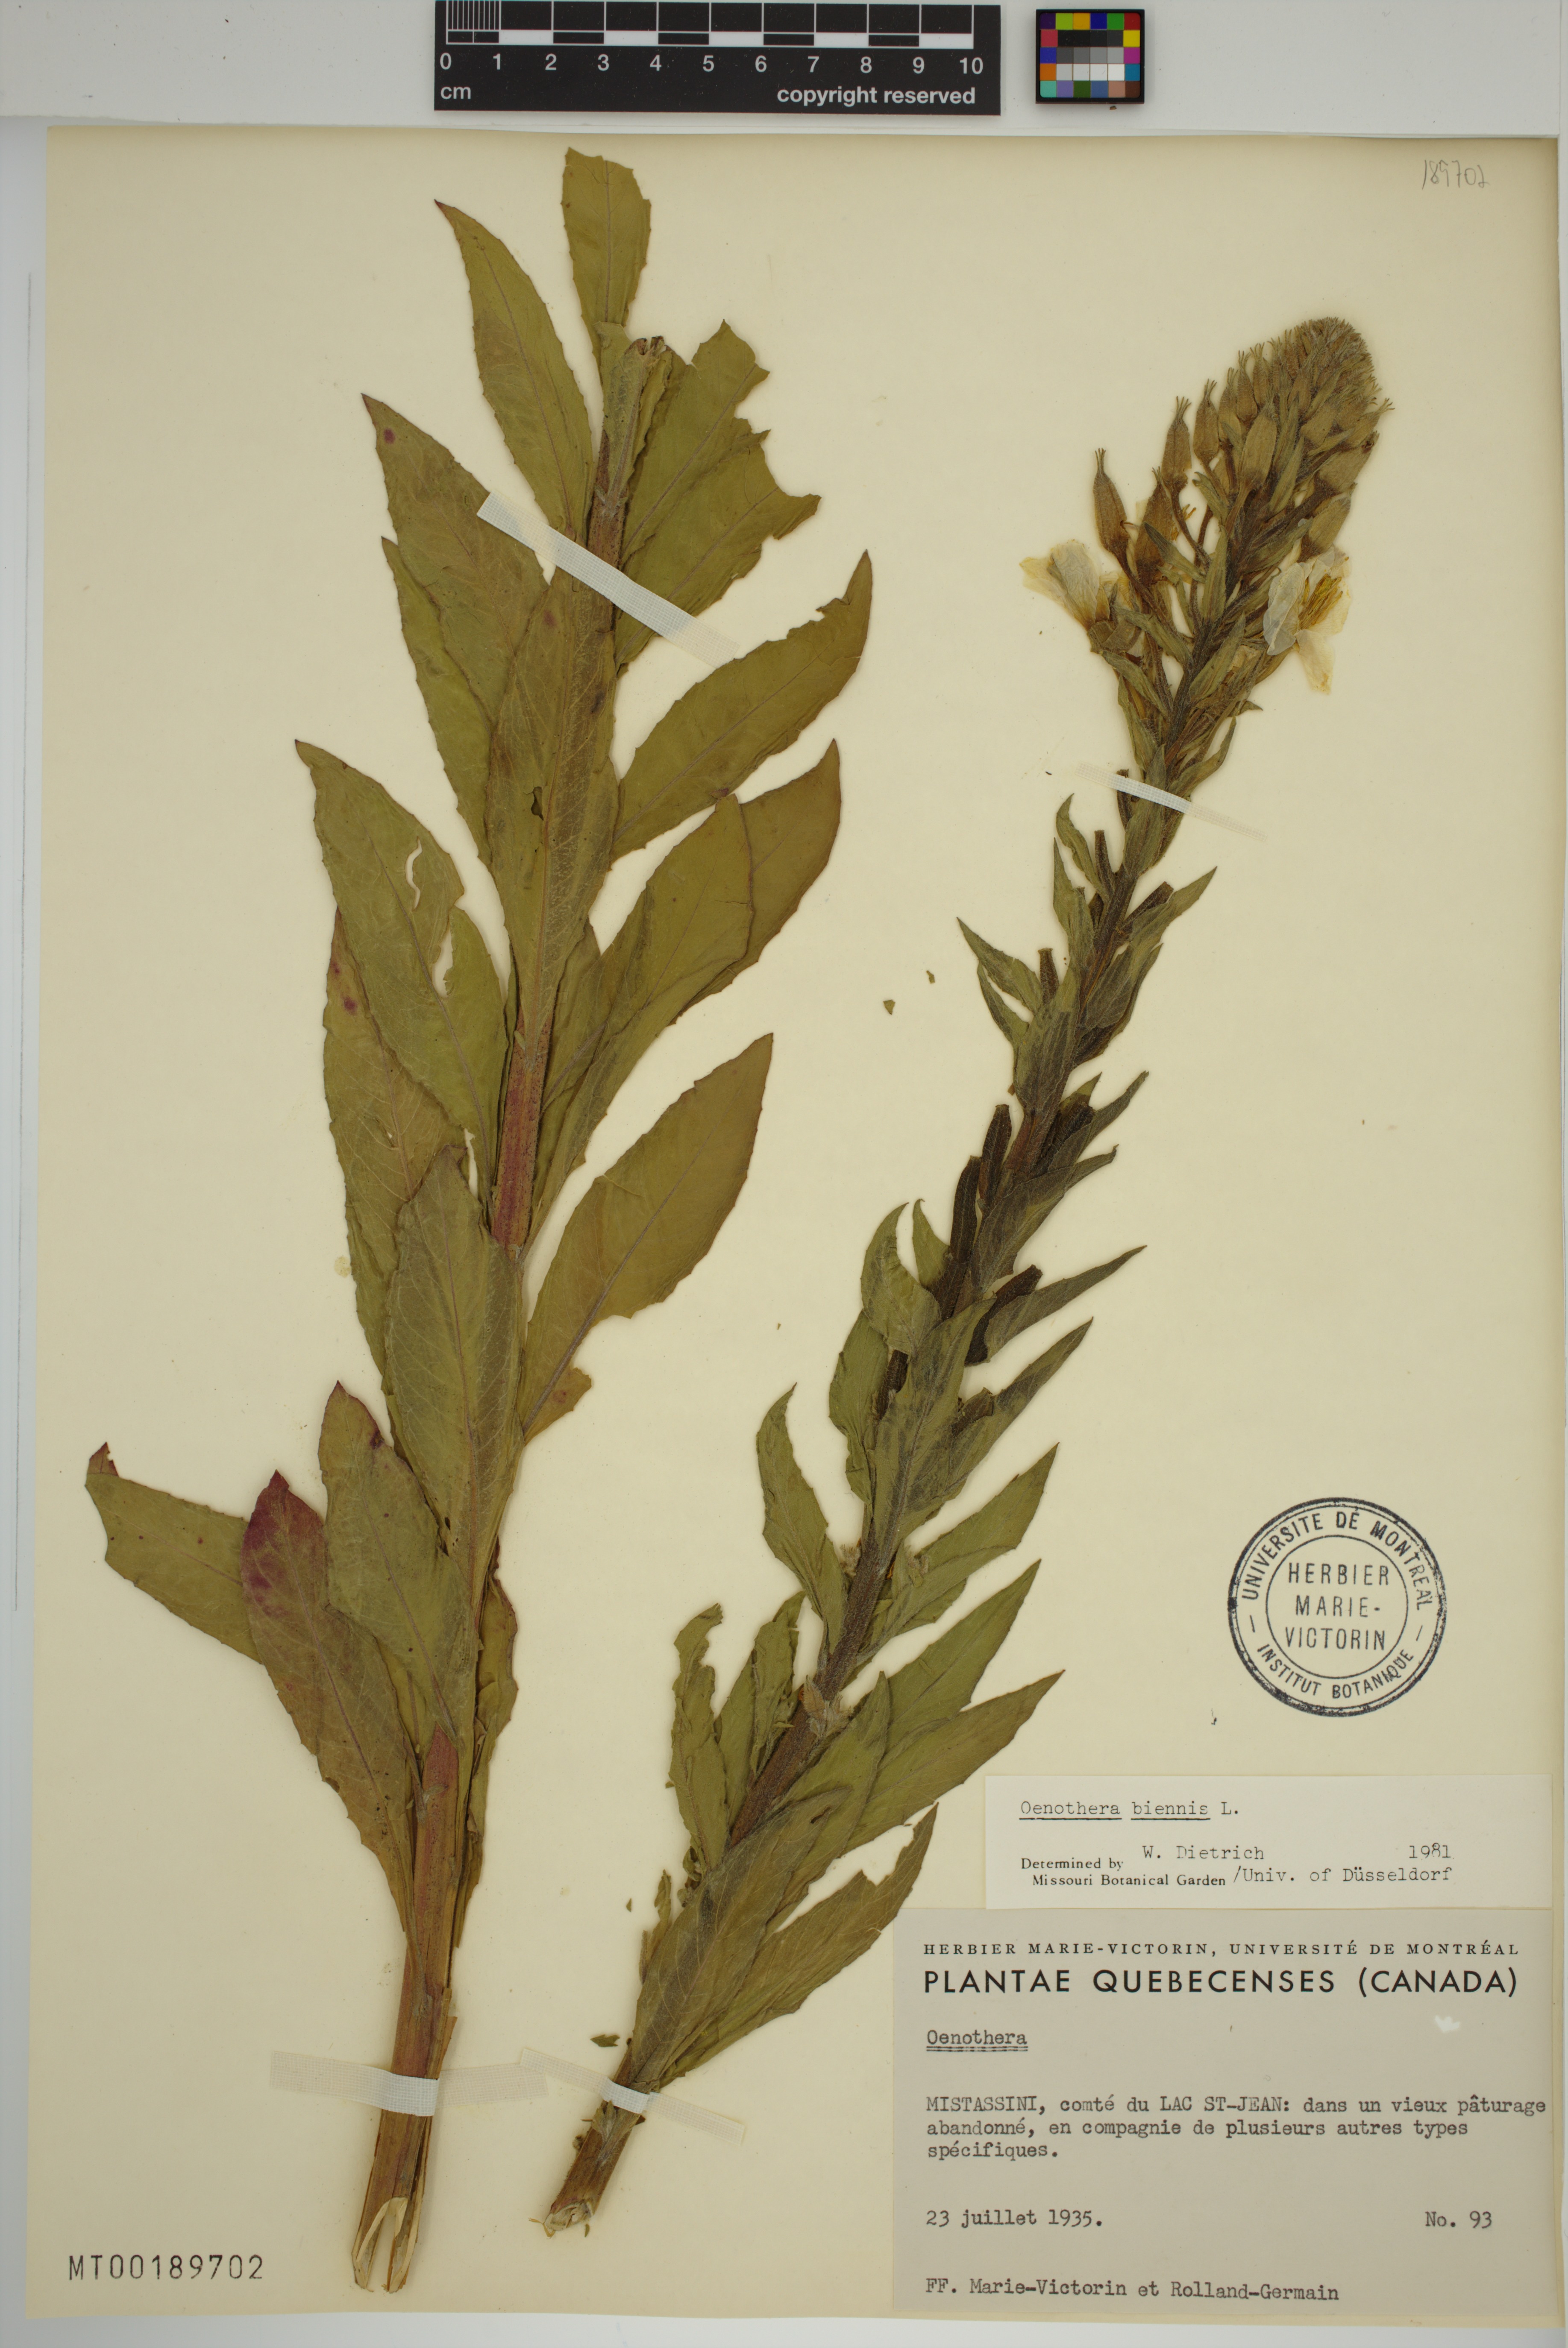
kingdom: Plantae
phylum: Tracheophyta
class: Magnoliopsida
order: Myrtales
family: Onagraceae
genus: Oenothera
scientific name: Oenothera biennis
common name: Common evening-primrose
